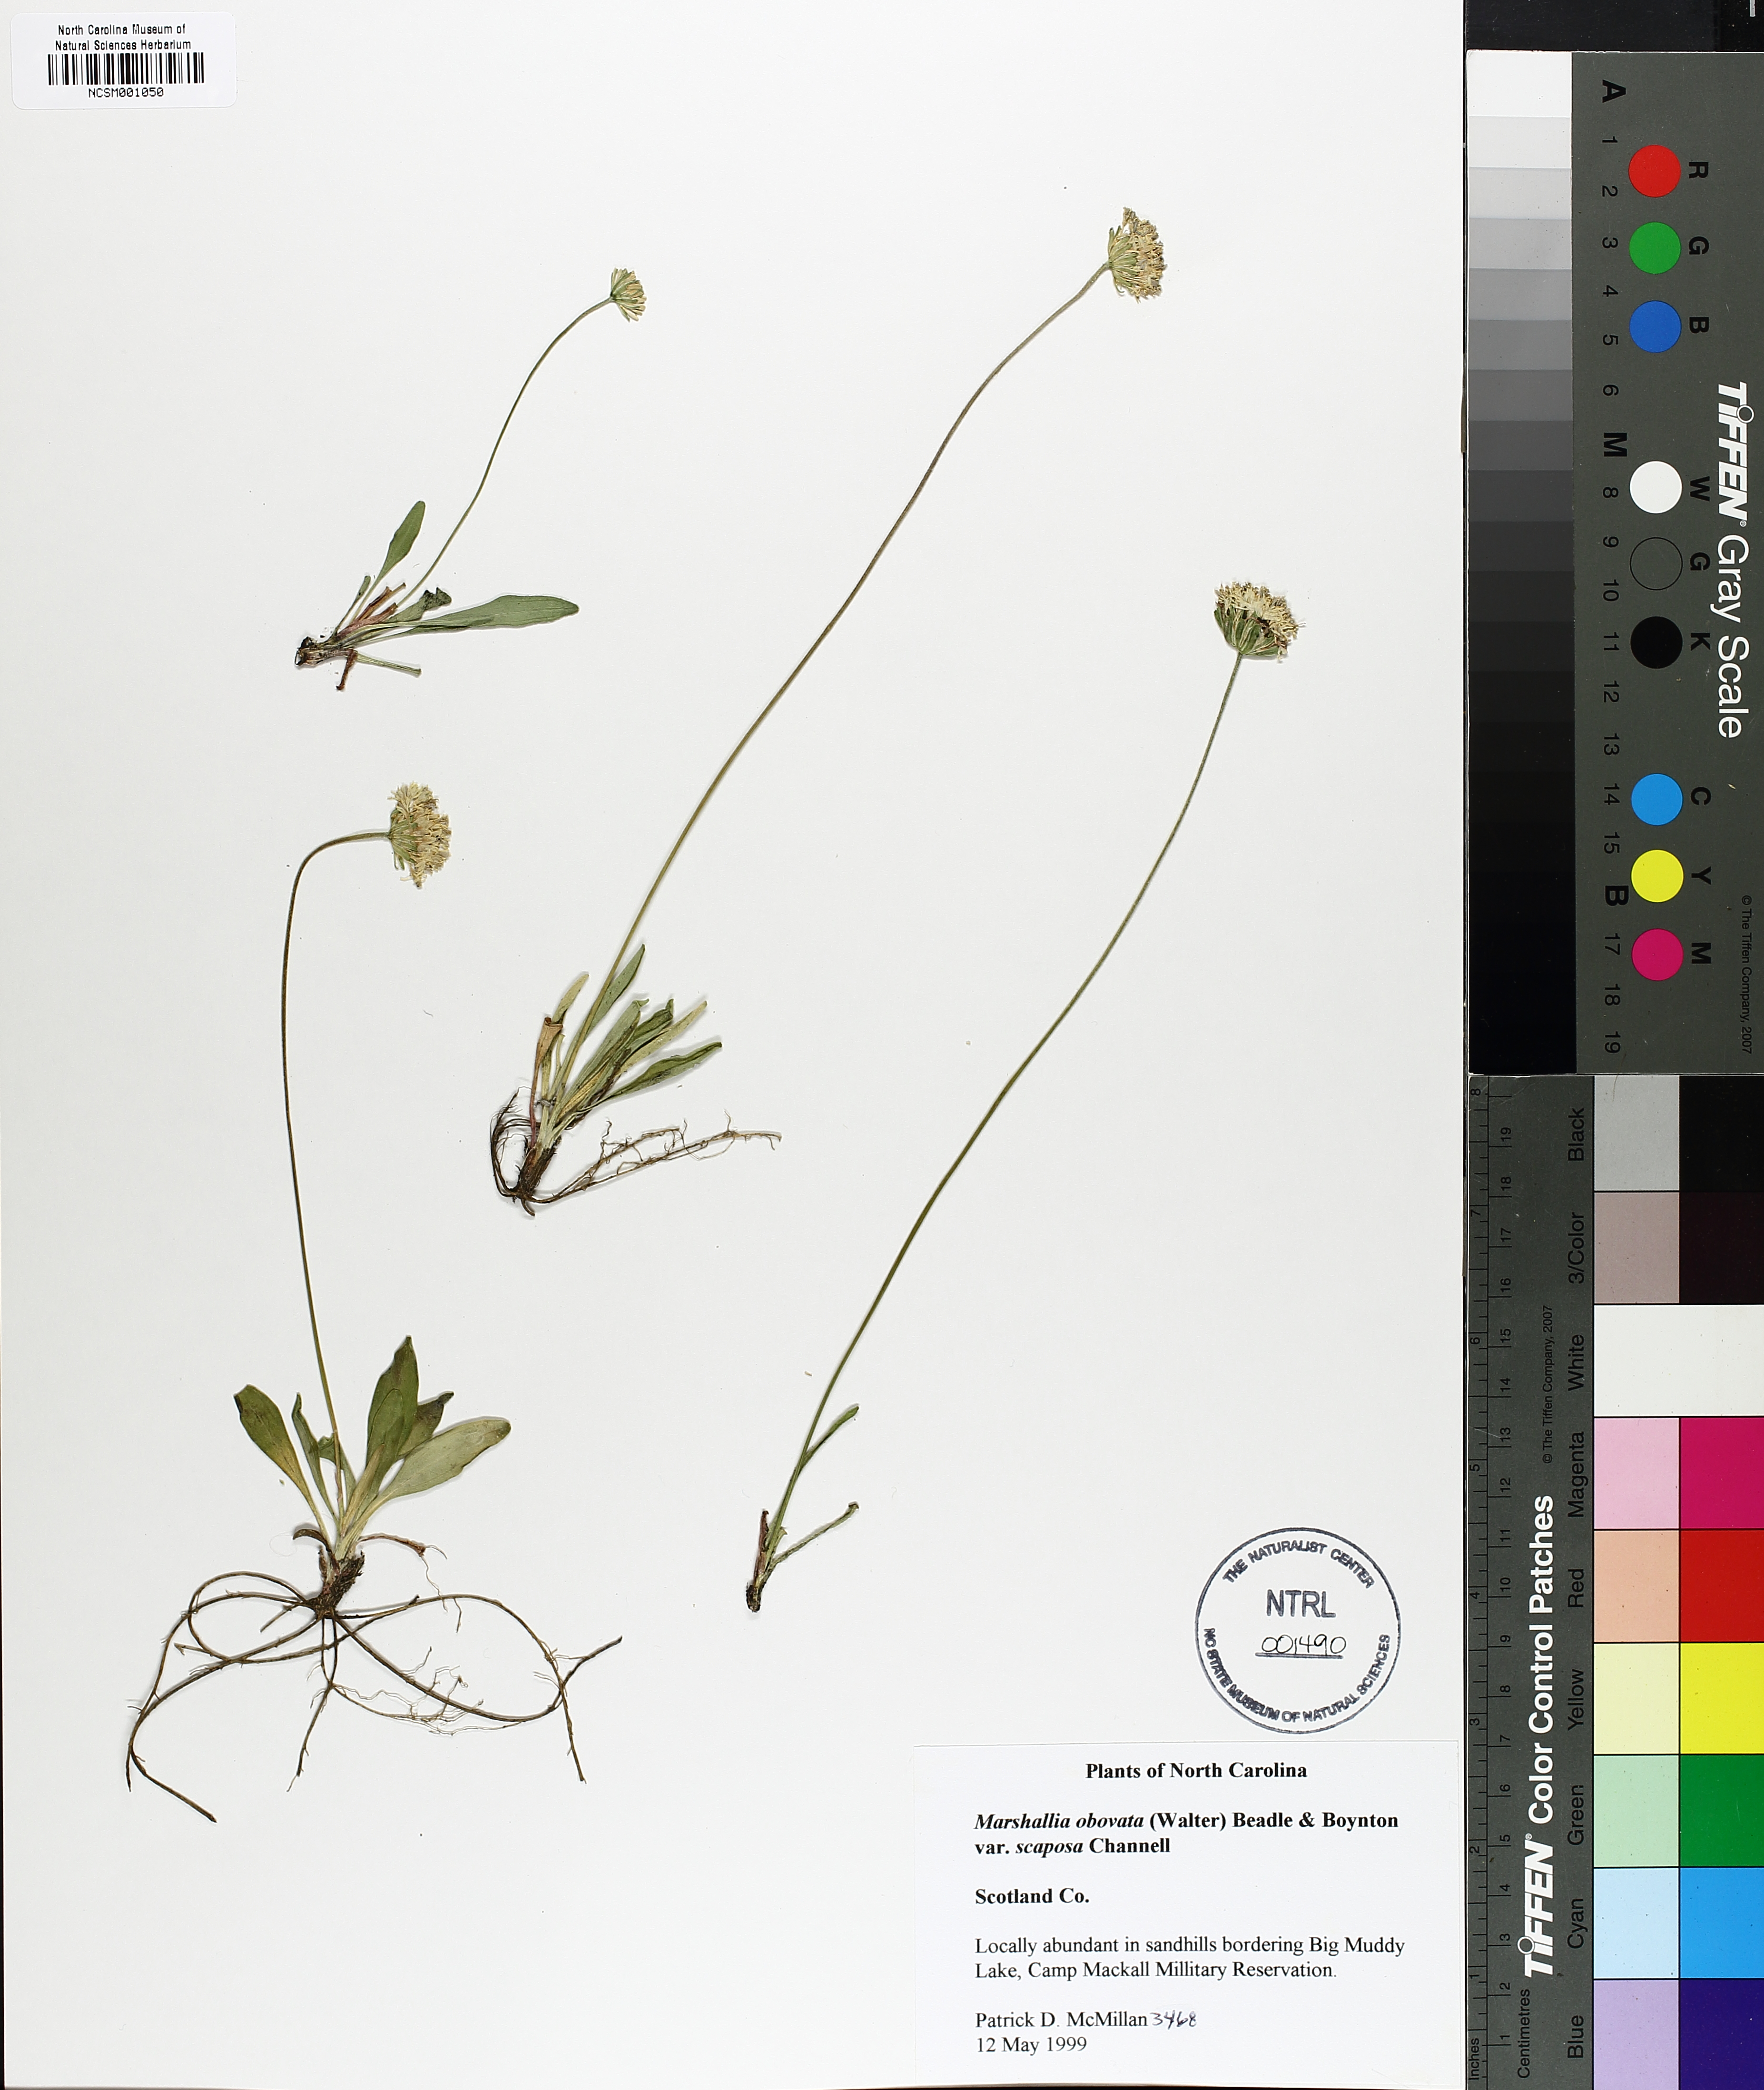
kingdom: Plantae
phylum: Tracheophyta
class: Magnoliopsida
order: Asterales
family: Asteraceae
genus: Marshallia
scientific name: Marshallia obovata
